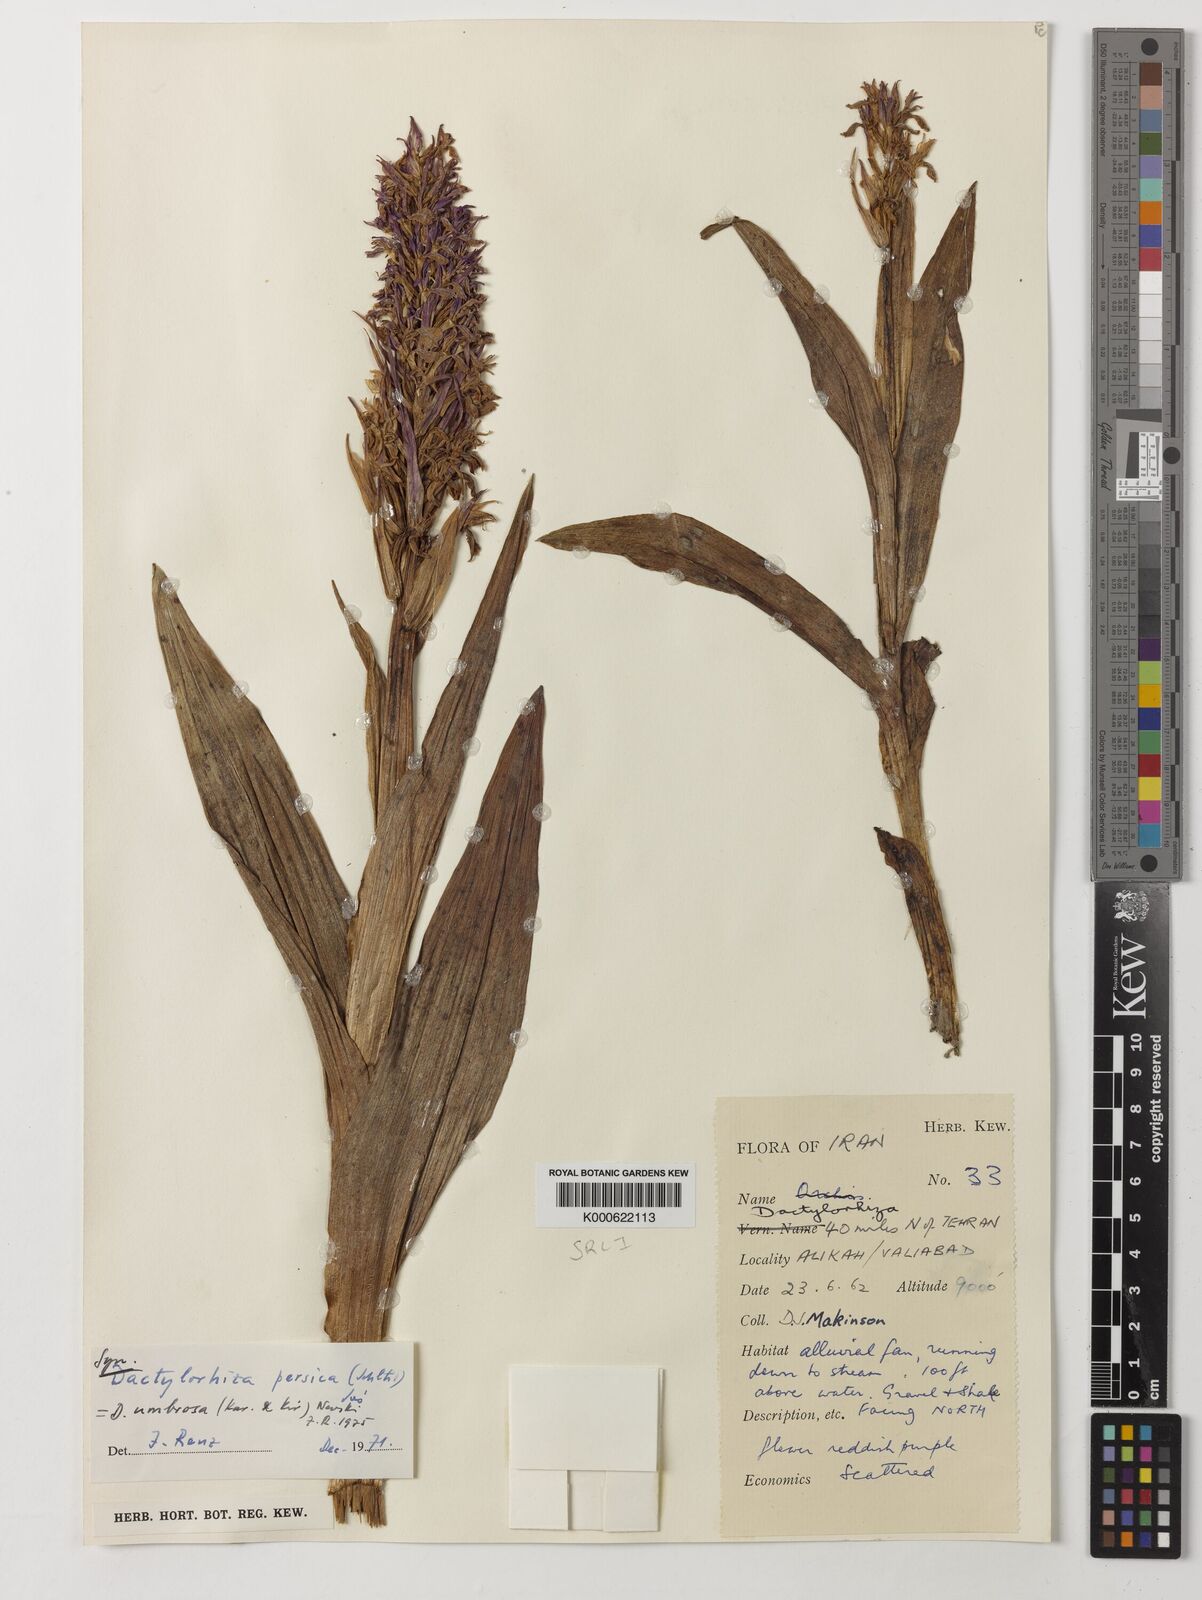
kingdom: Plantae
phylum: Tracheophyta
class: Liliopsida
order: Asparagales
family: Orchidaceae
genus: Dactylorhiza
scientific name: Dactylorhiza
